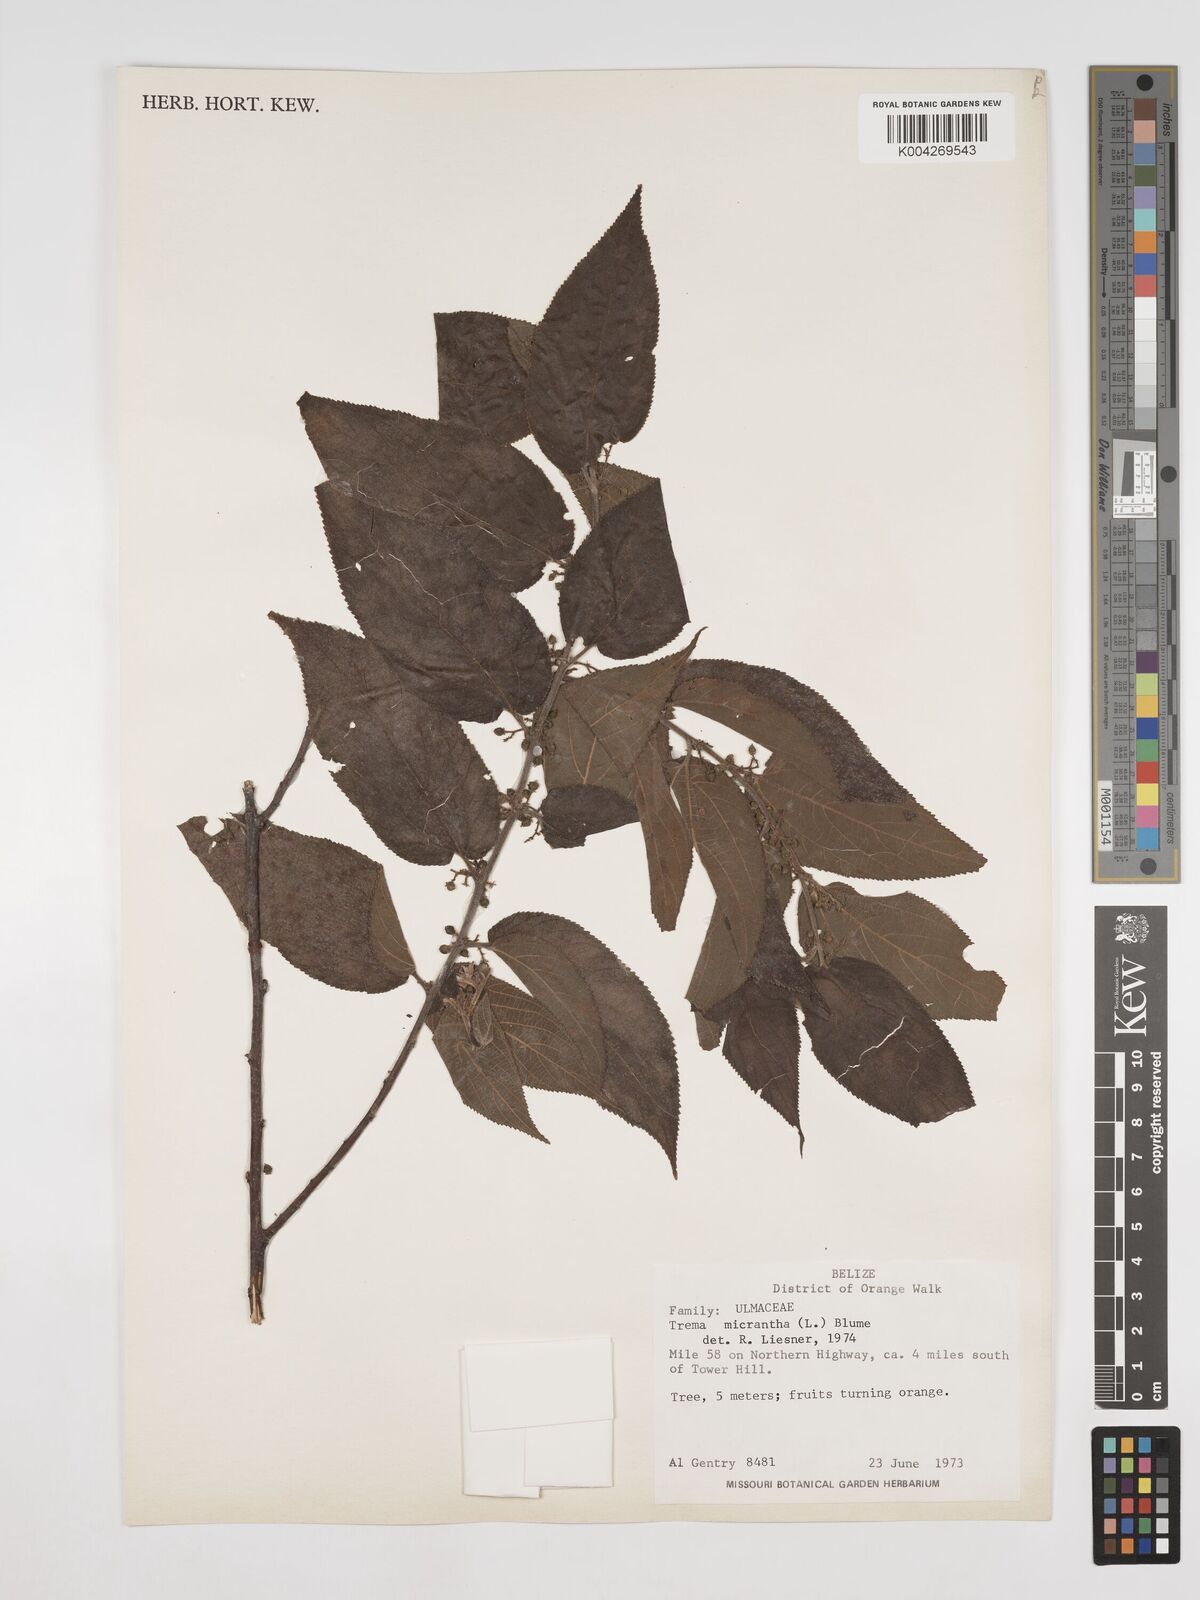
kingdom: Plantae
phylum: Tracheophyta
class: Magnoliopsida
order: Rosales
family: Cannabaceae
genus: Trema
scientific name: Trema micranthum
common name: Jamaican nettletree
